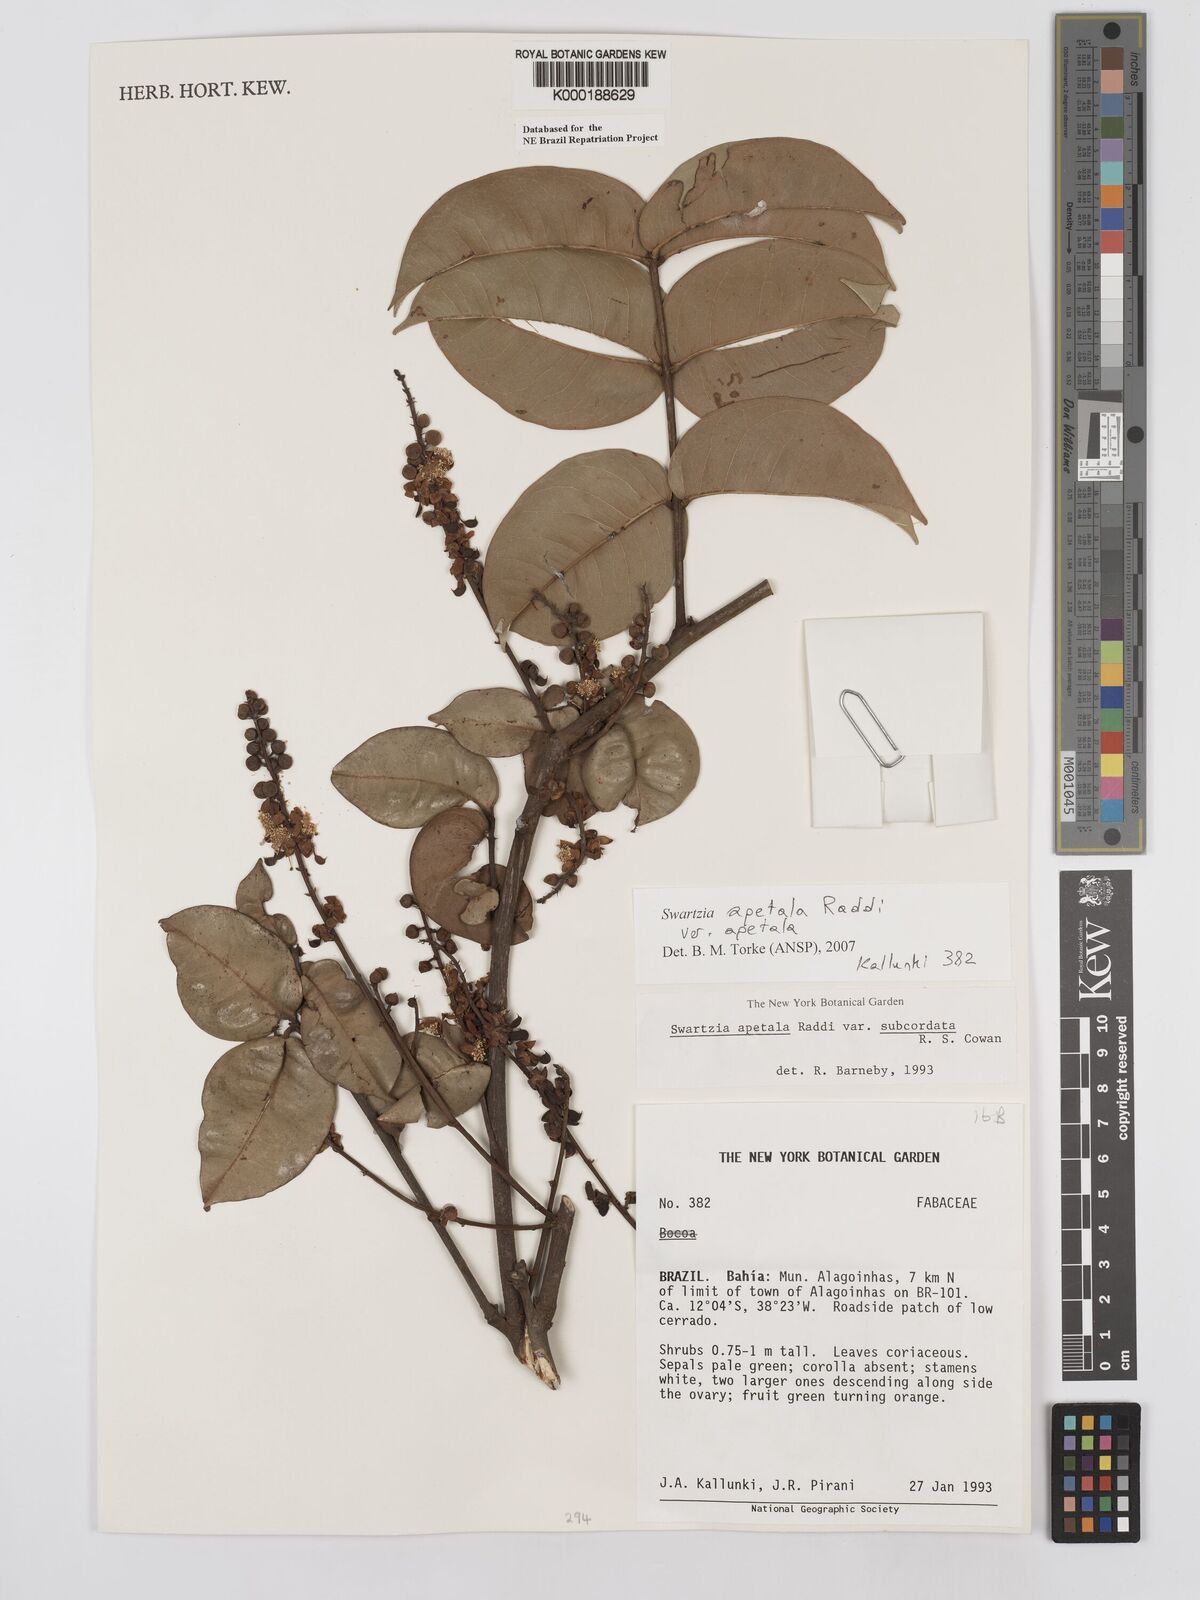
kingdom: Plantae
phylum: Tracheophyta
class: Magnoliopsida
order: Fabales
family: Fabaceae
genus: Swartzia
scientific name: Swartzia apetala
